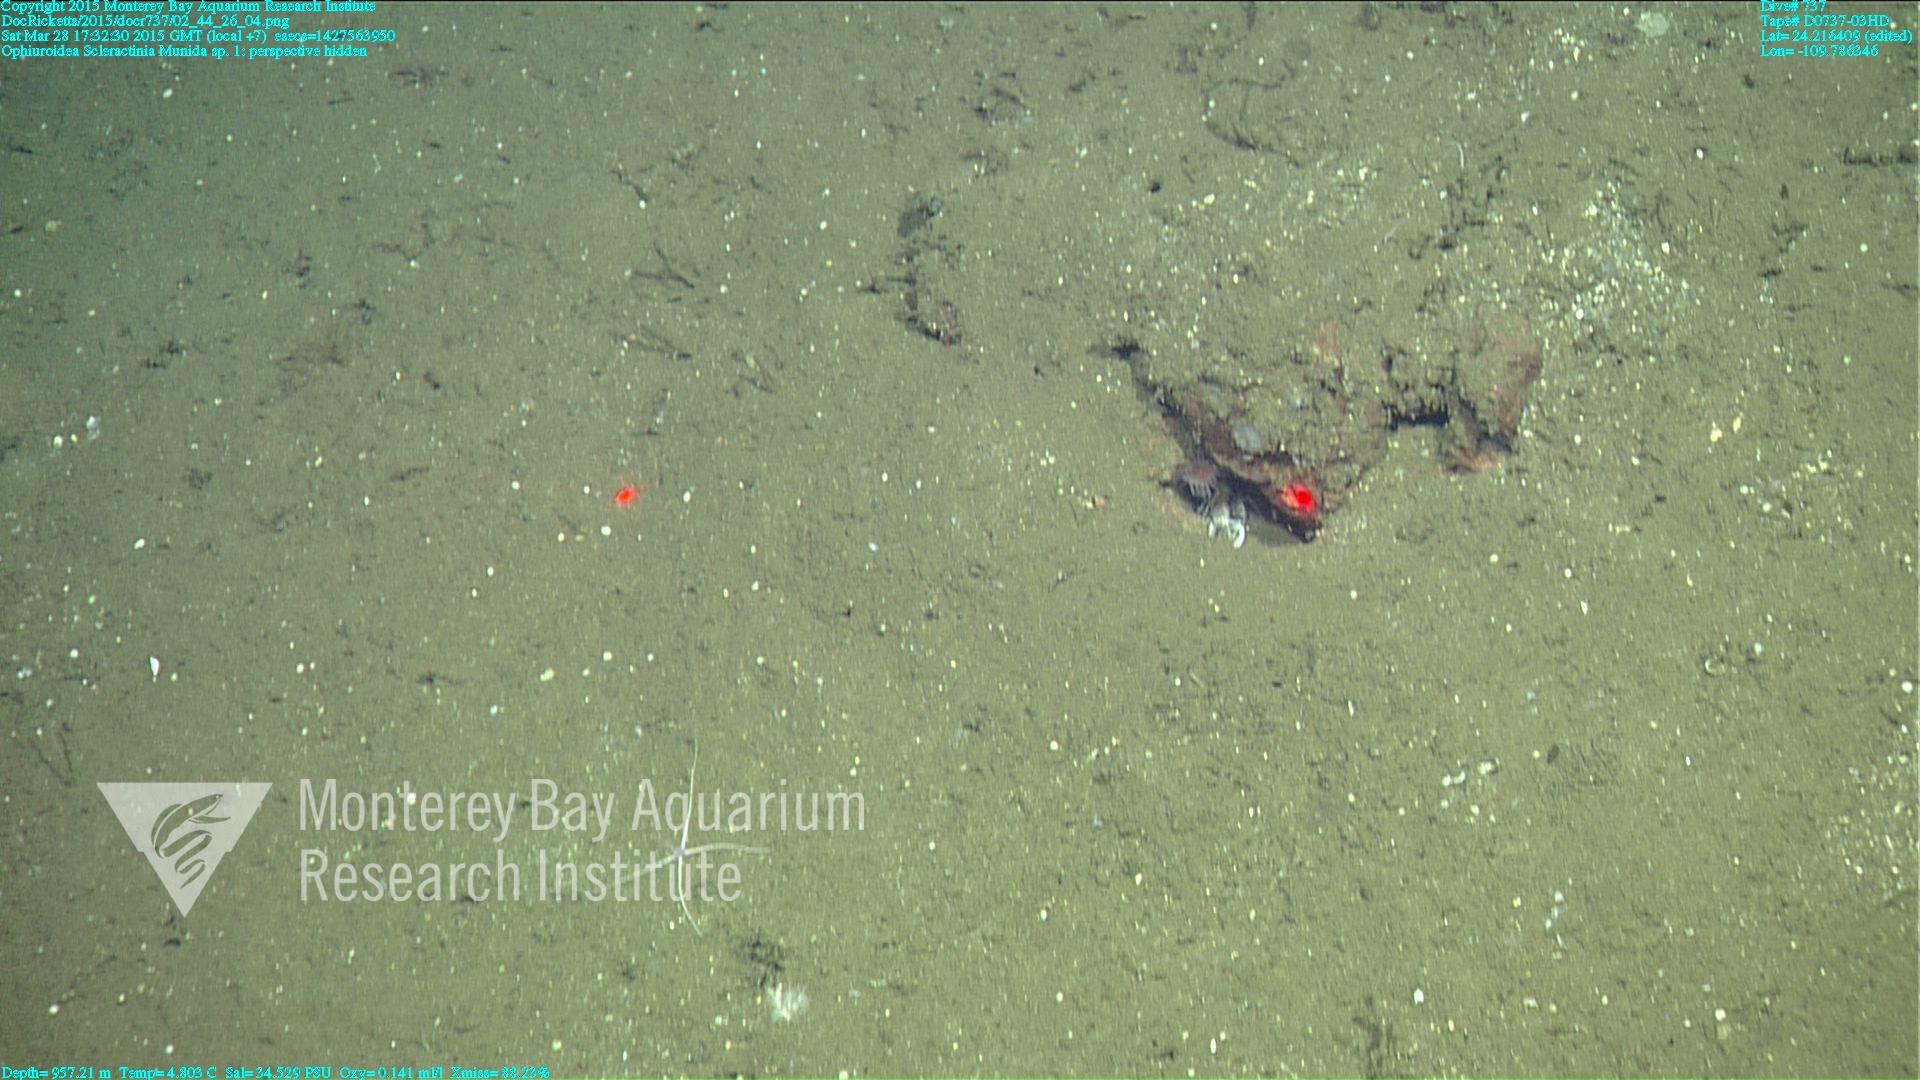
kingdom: Animalia
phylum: Cnidaria
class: Anthozoa
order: Scleractinia
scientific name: Scleractinia
